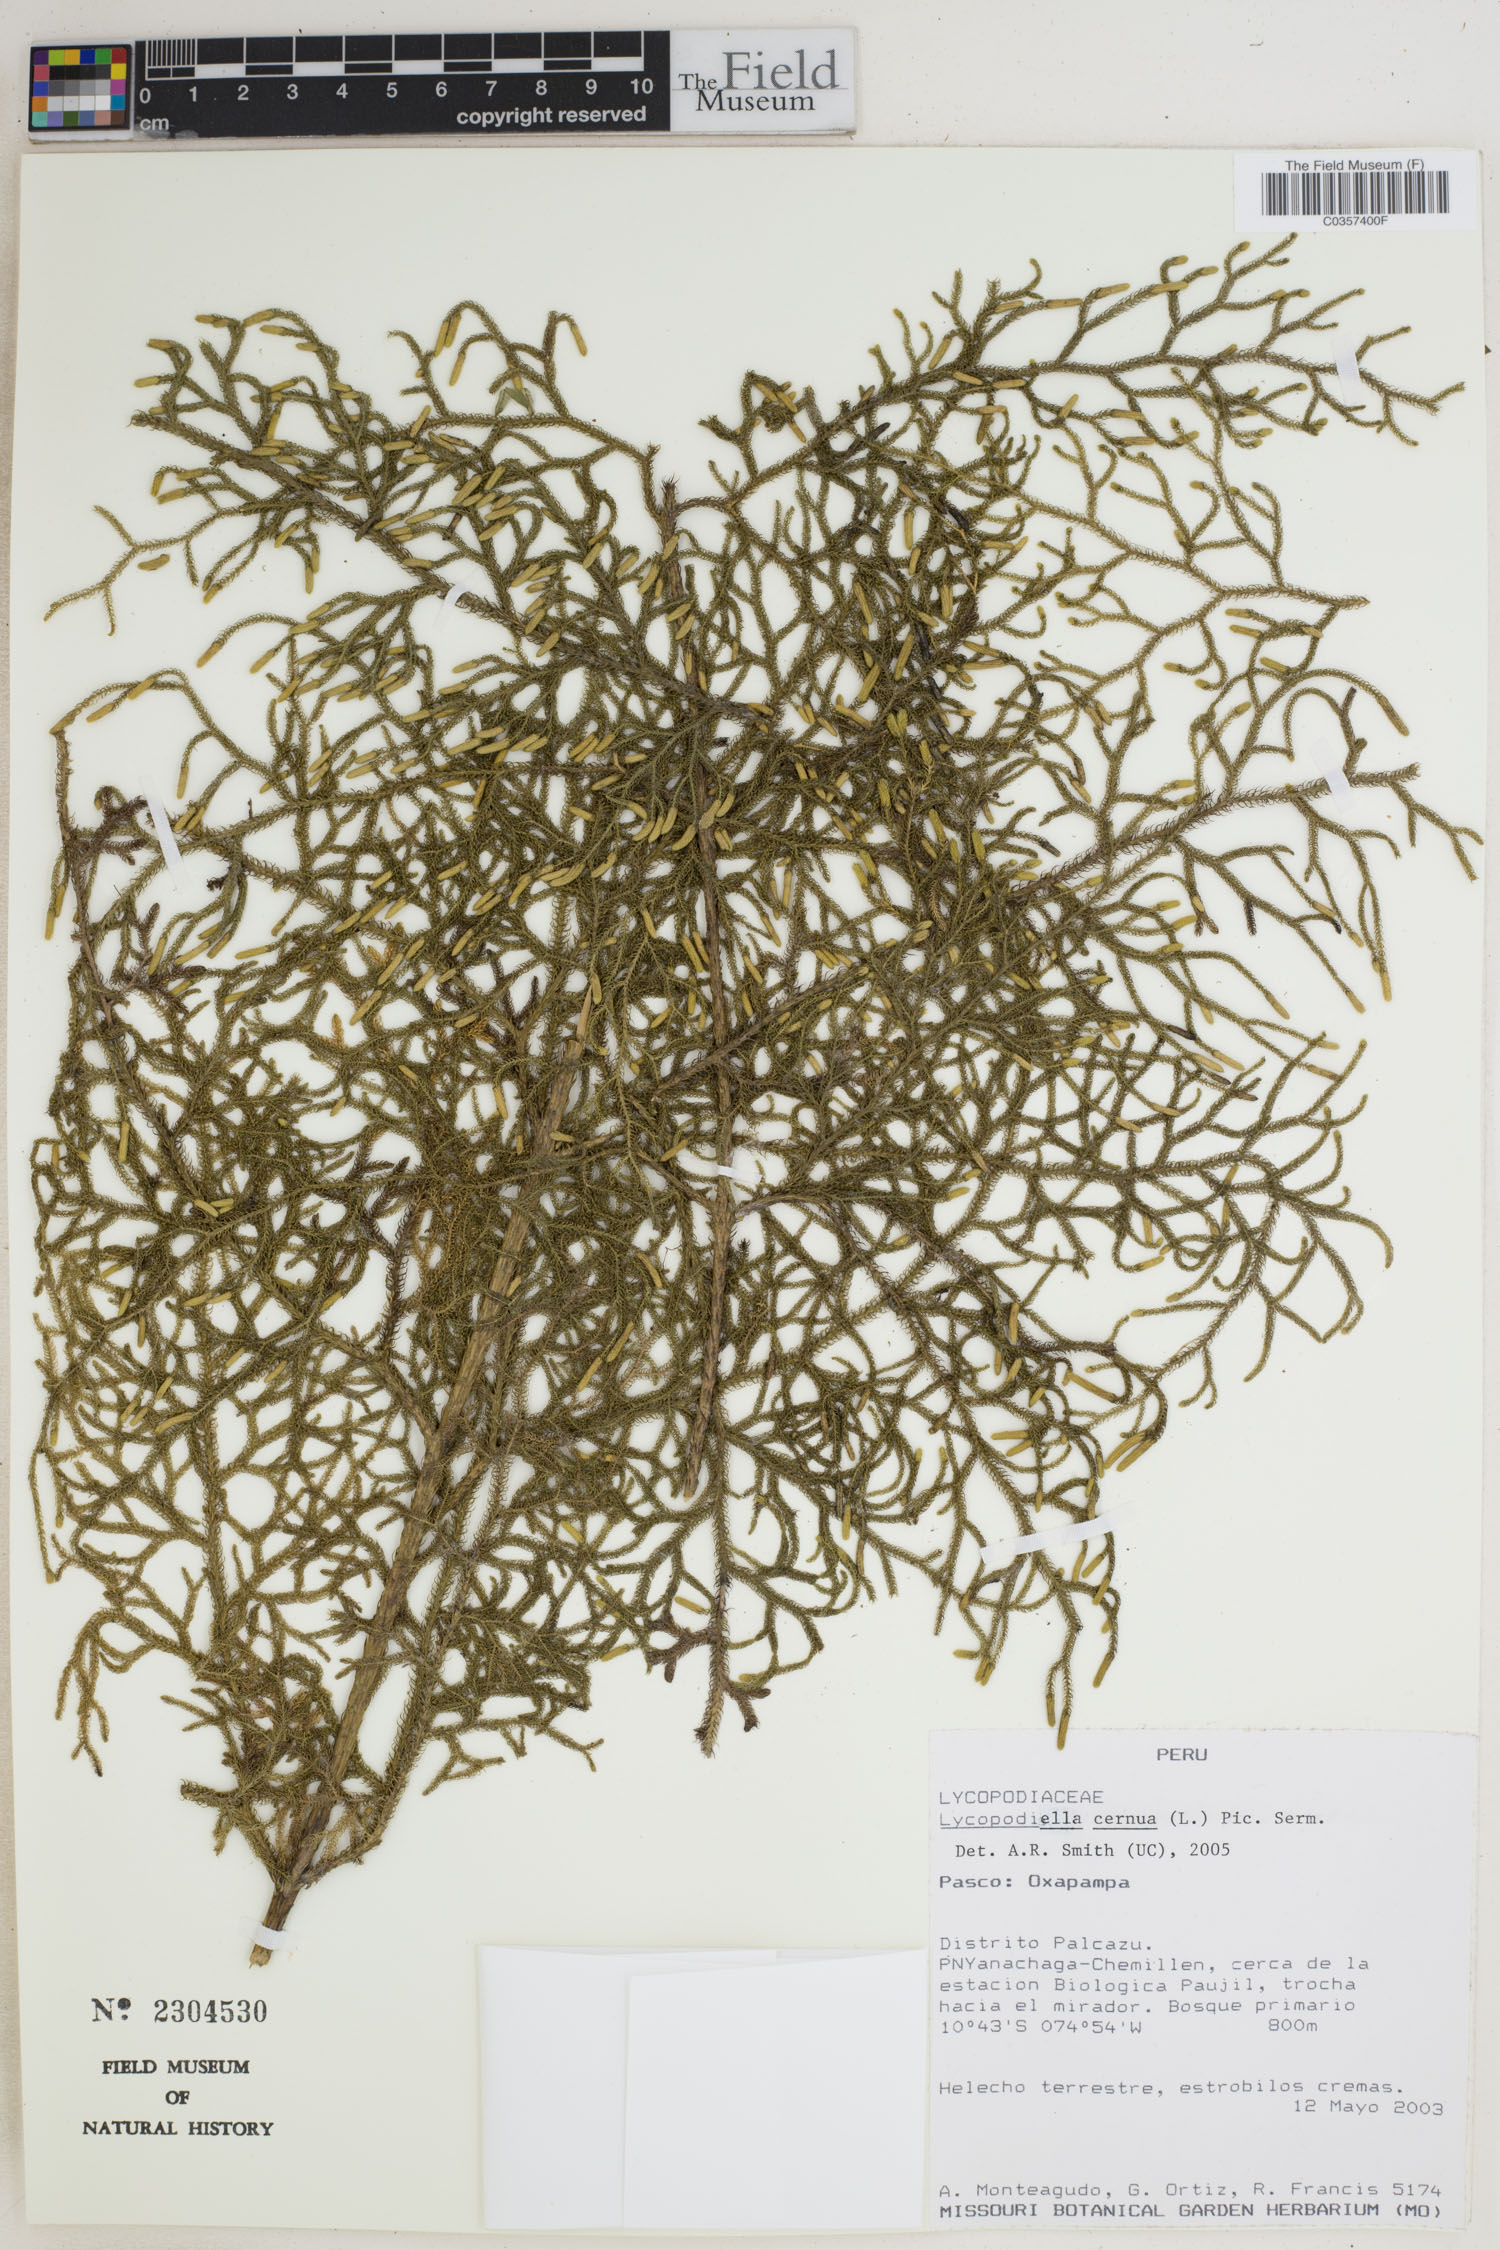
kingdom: Plantae
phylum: Tracheophyta
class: Lycopodiopsida
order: Lycopodiales
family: Lycopodiaceae
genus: Palhinhaea
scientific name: Palhinhaea cernua
